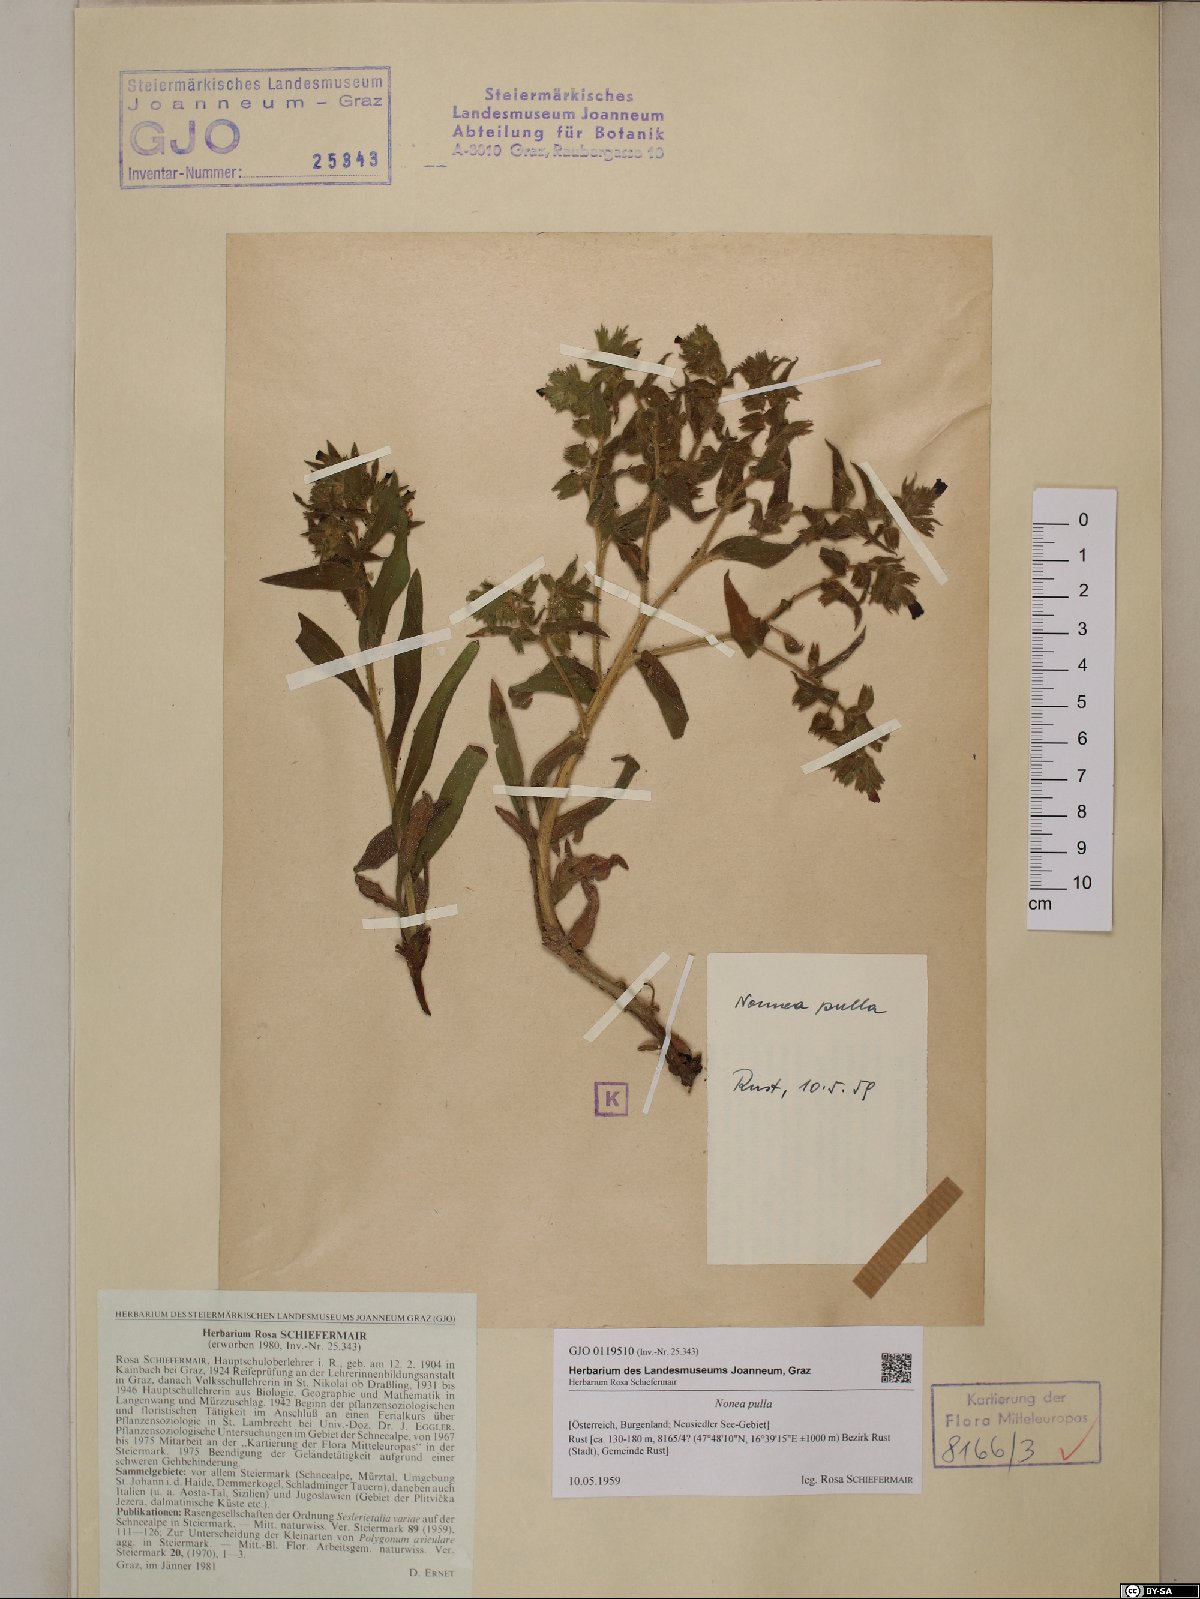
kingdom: Plantae
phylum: Tracheophyta
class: Magnoliopsida
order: Boraginales
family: Boraginaceae
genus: Nonea
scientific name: Nonea pulla
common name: Brown nonea
